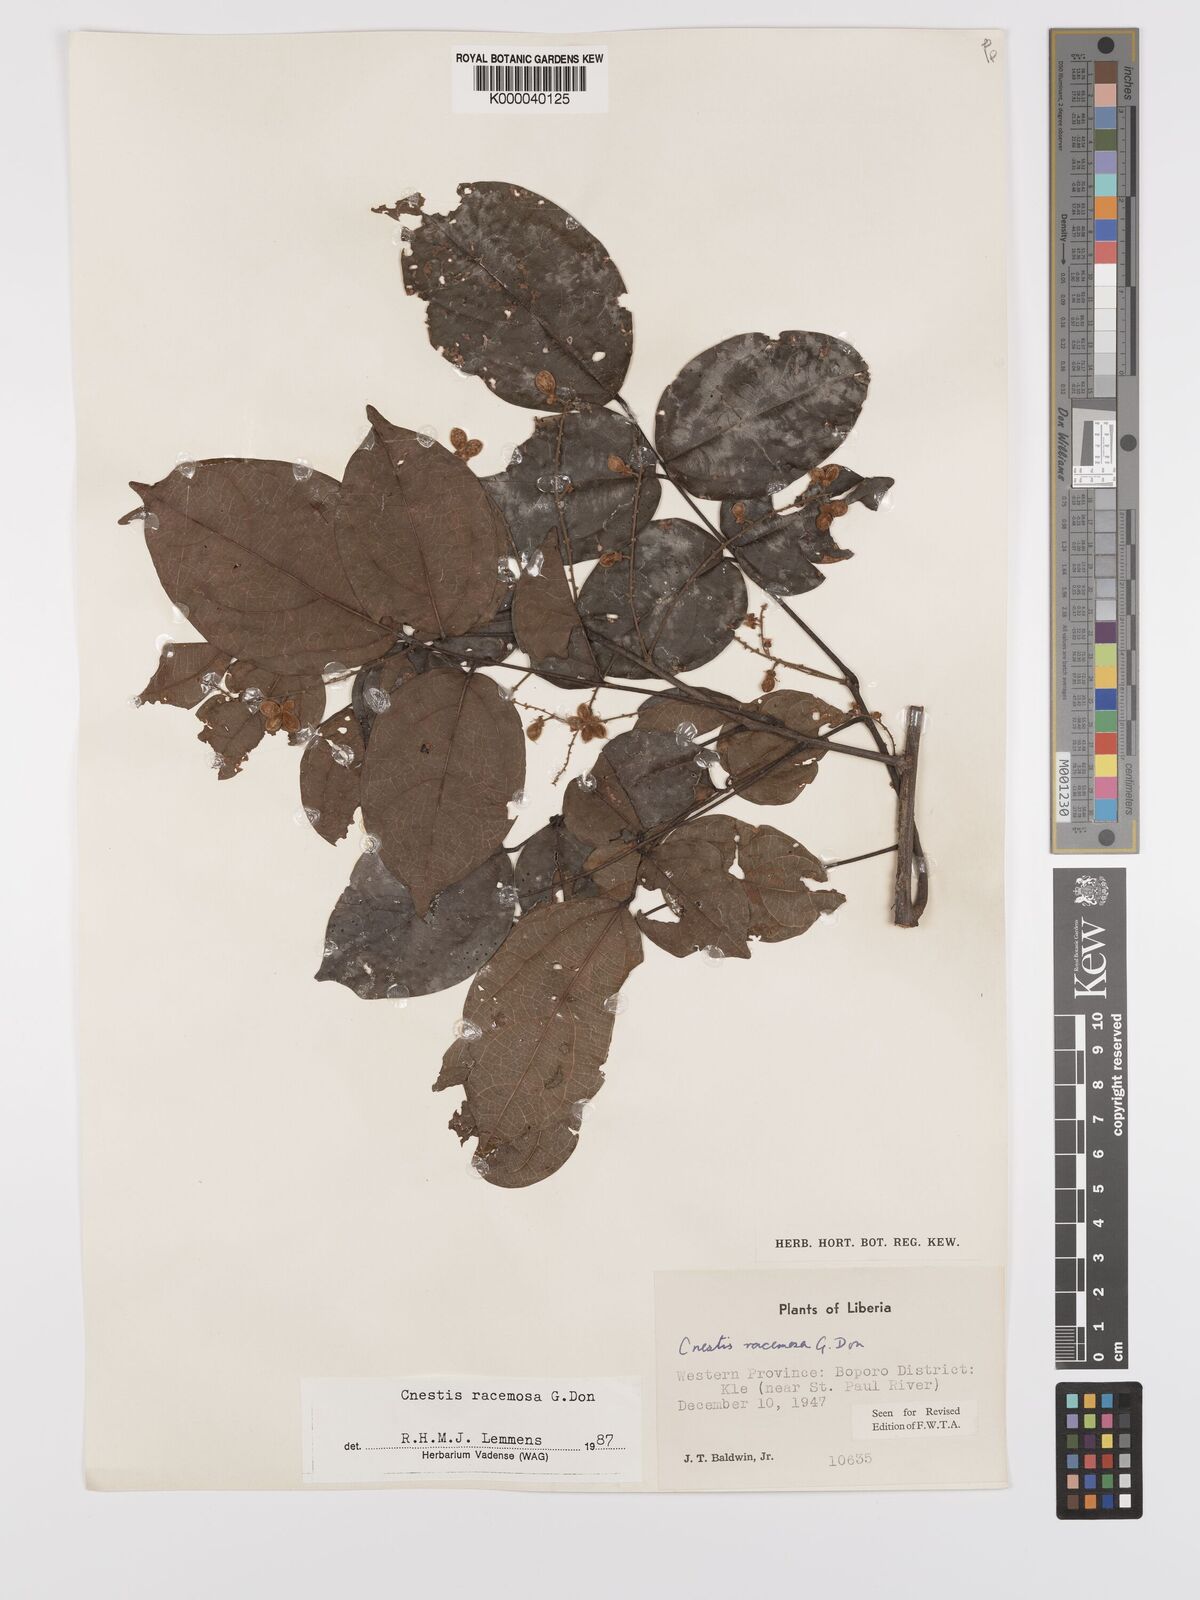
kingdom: Plantae
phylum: Tracheophyta
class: Magnoliopsida
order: Oxalidales
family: Connaraceae
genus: Cnestis
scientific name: Cnestis racemosa
